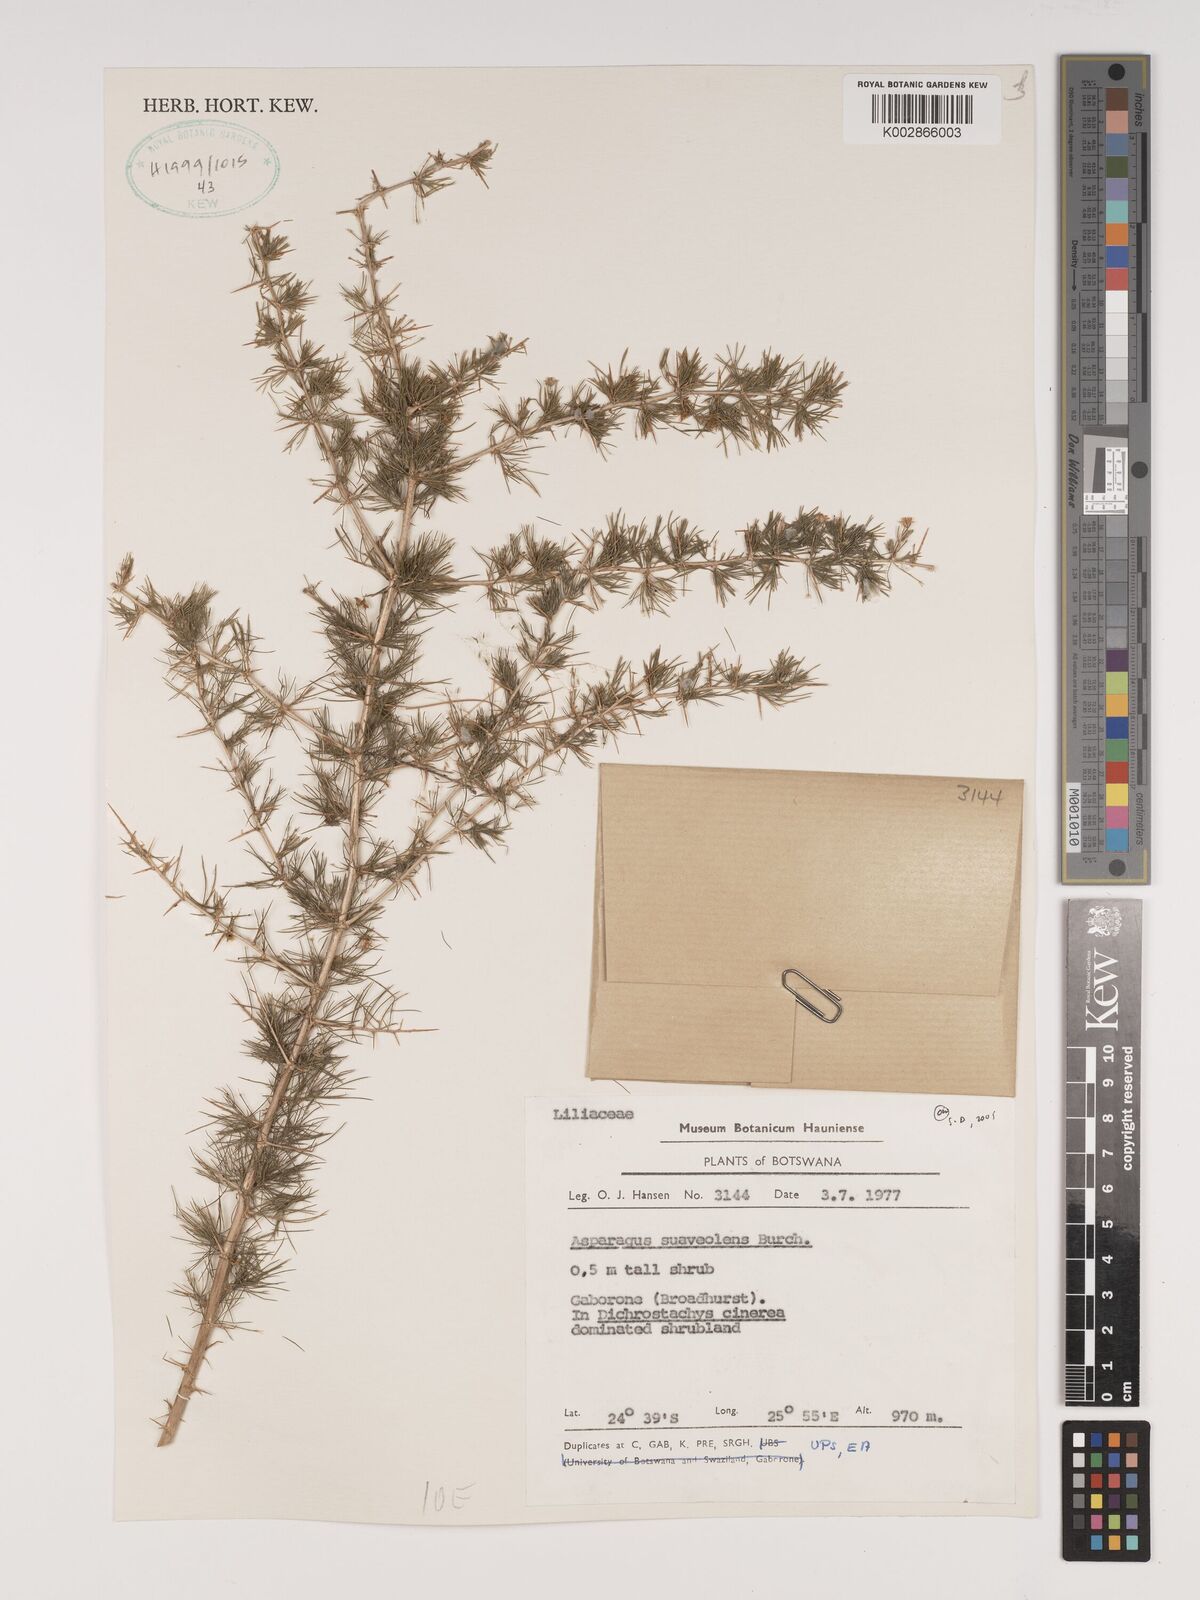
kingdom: Plantae
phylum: Tracheophyta
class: Liliopsida
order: Asparagales
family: Asparagaceae
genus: Asparagus
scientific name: Asparagus suaveolens
